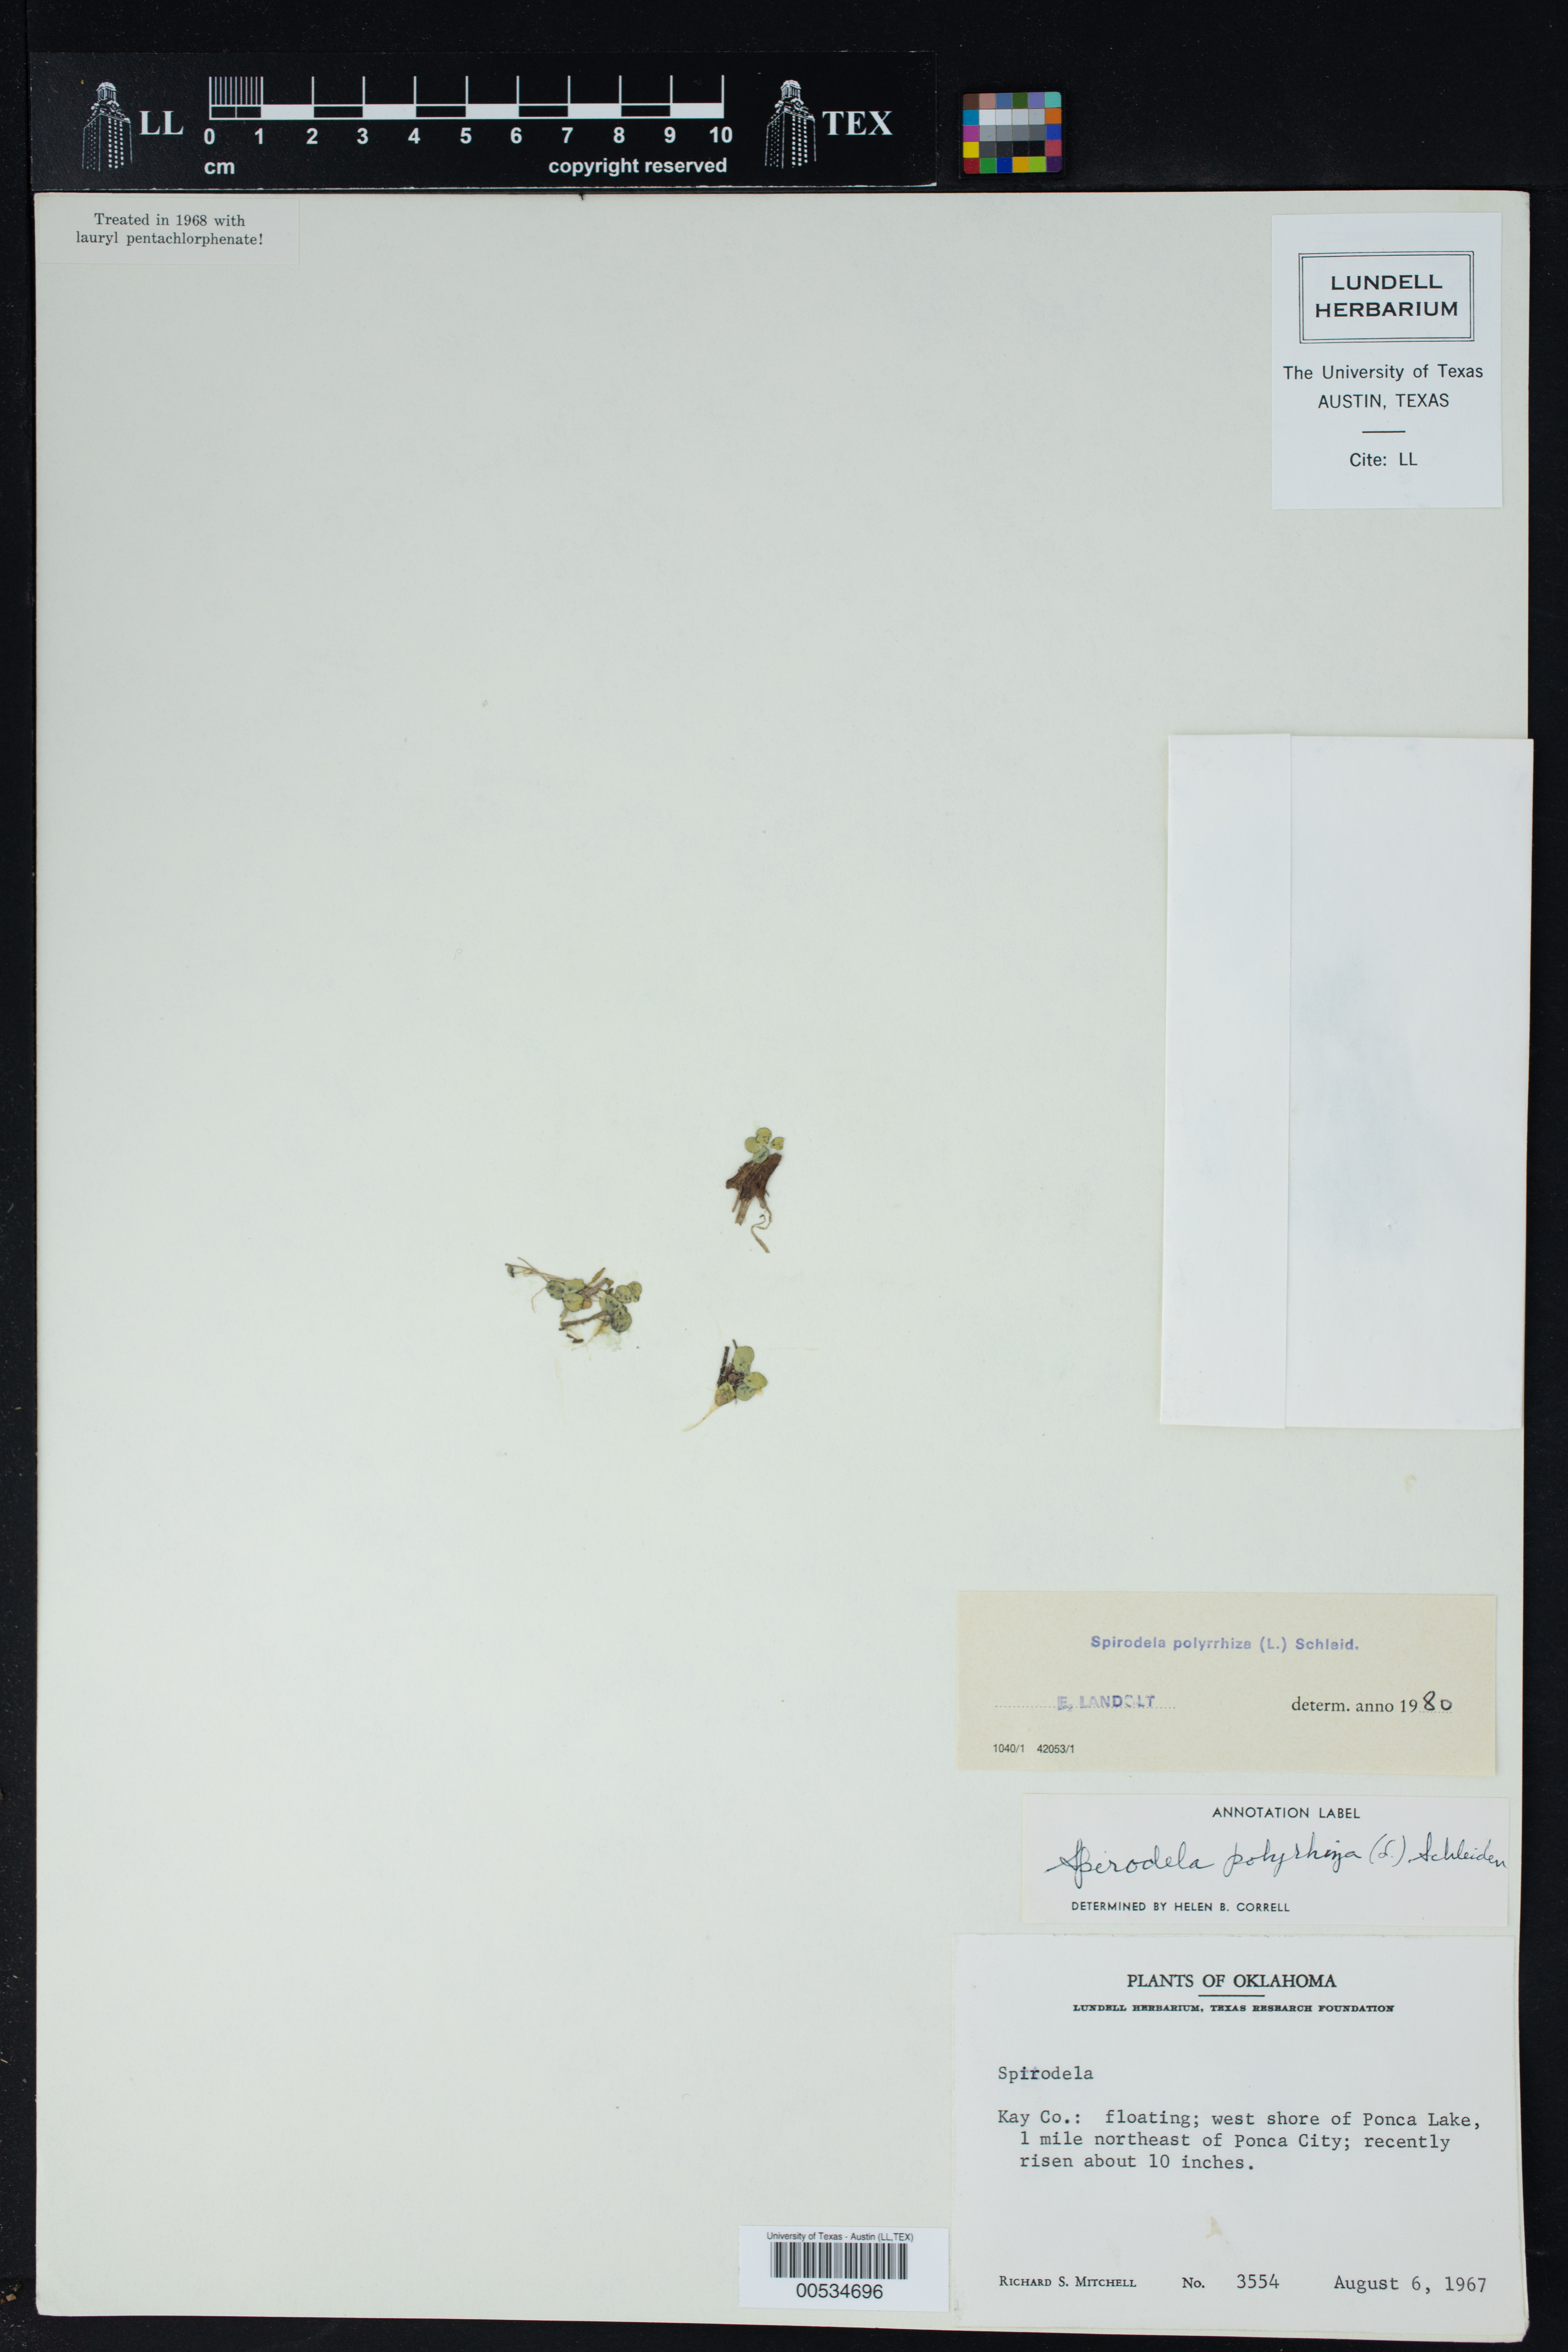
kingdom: Plantae
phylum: Tracheophyta
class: Liliopsida
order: Alismatales
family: Araceae
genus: Spirodela
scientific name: Spirodela polyrhiza
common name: Great duckweed
